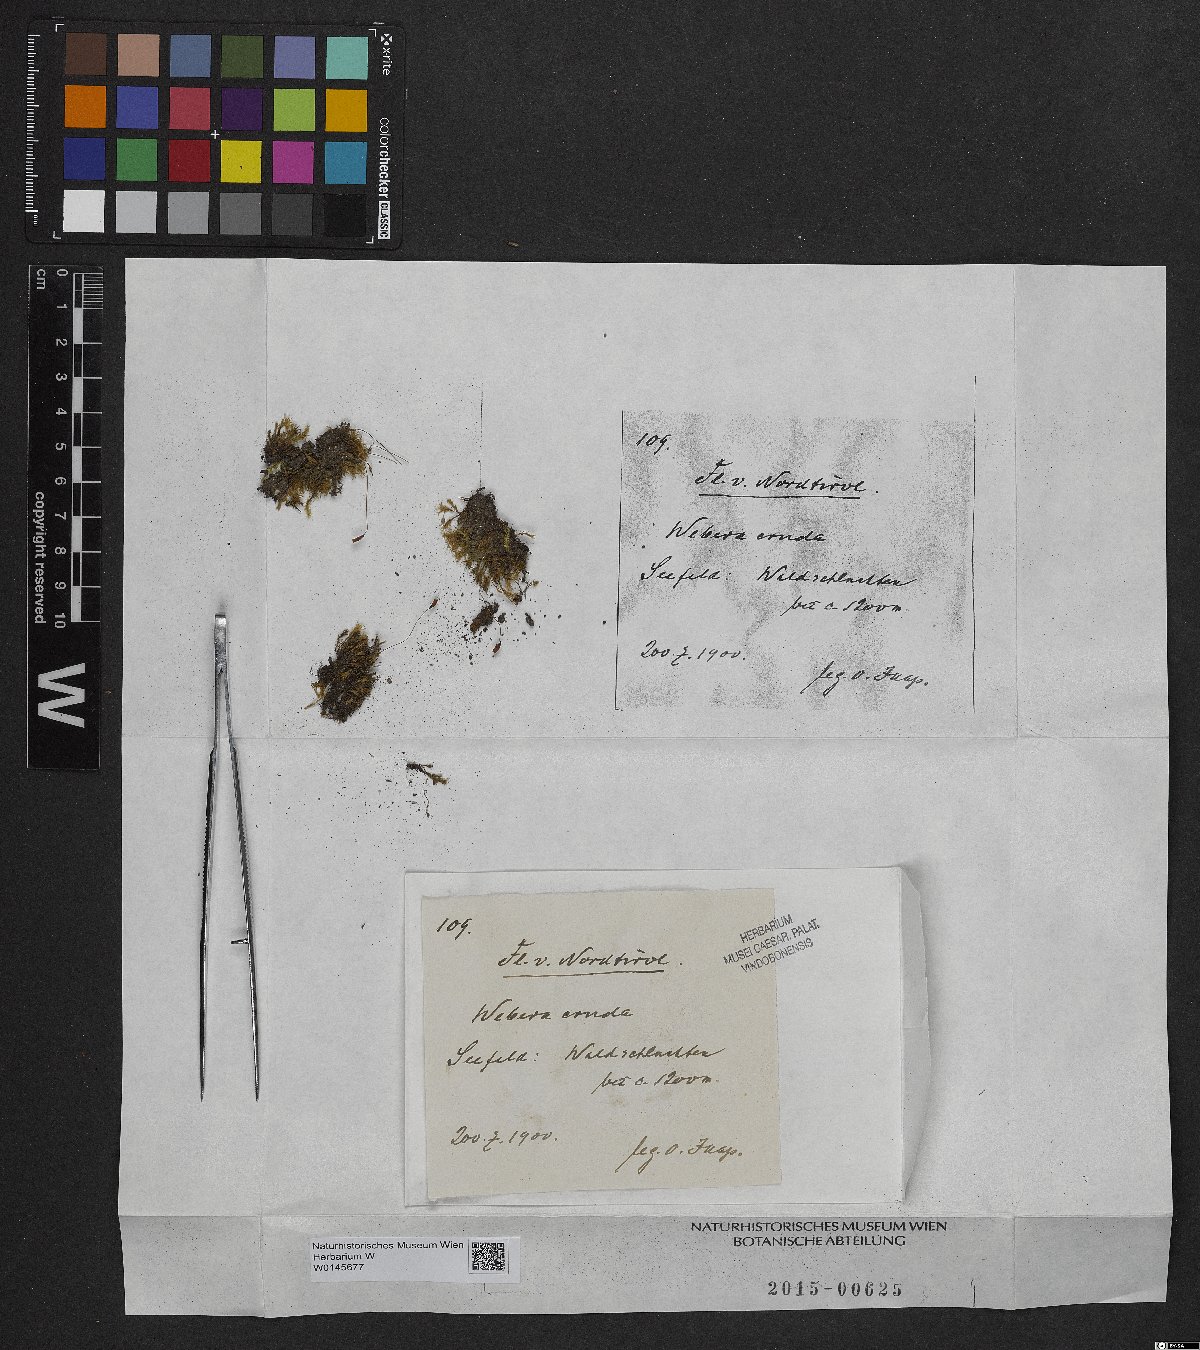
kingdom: Plantae
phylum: Bryophyta
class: Bryopsida
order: Bryales
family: Mniaceae
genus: Pohlia
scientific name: Pohlia cruda
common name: Opal nodding moss
